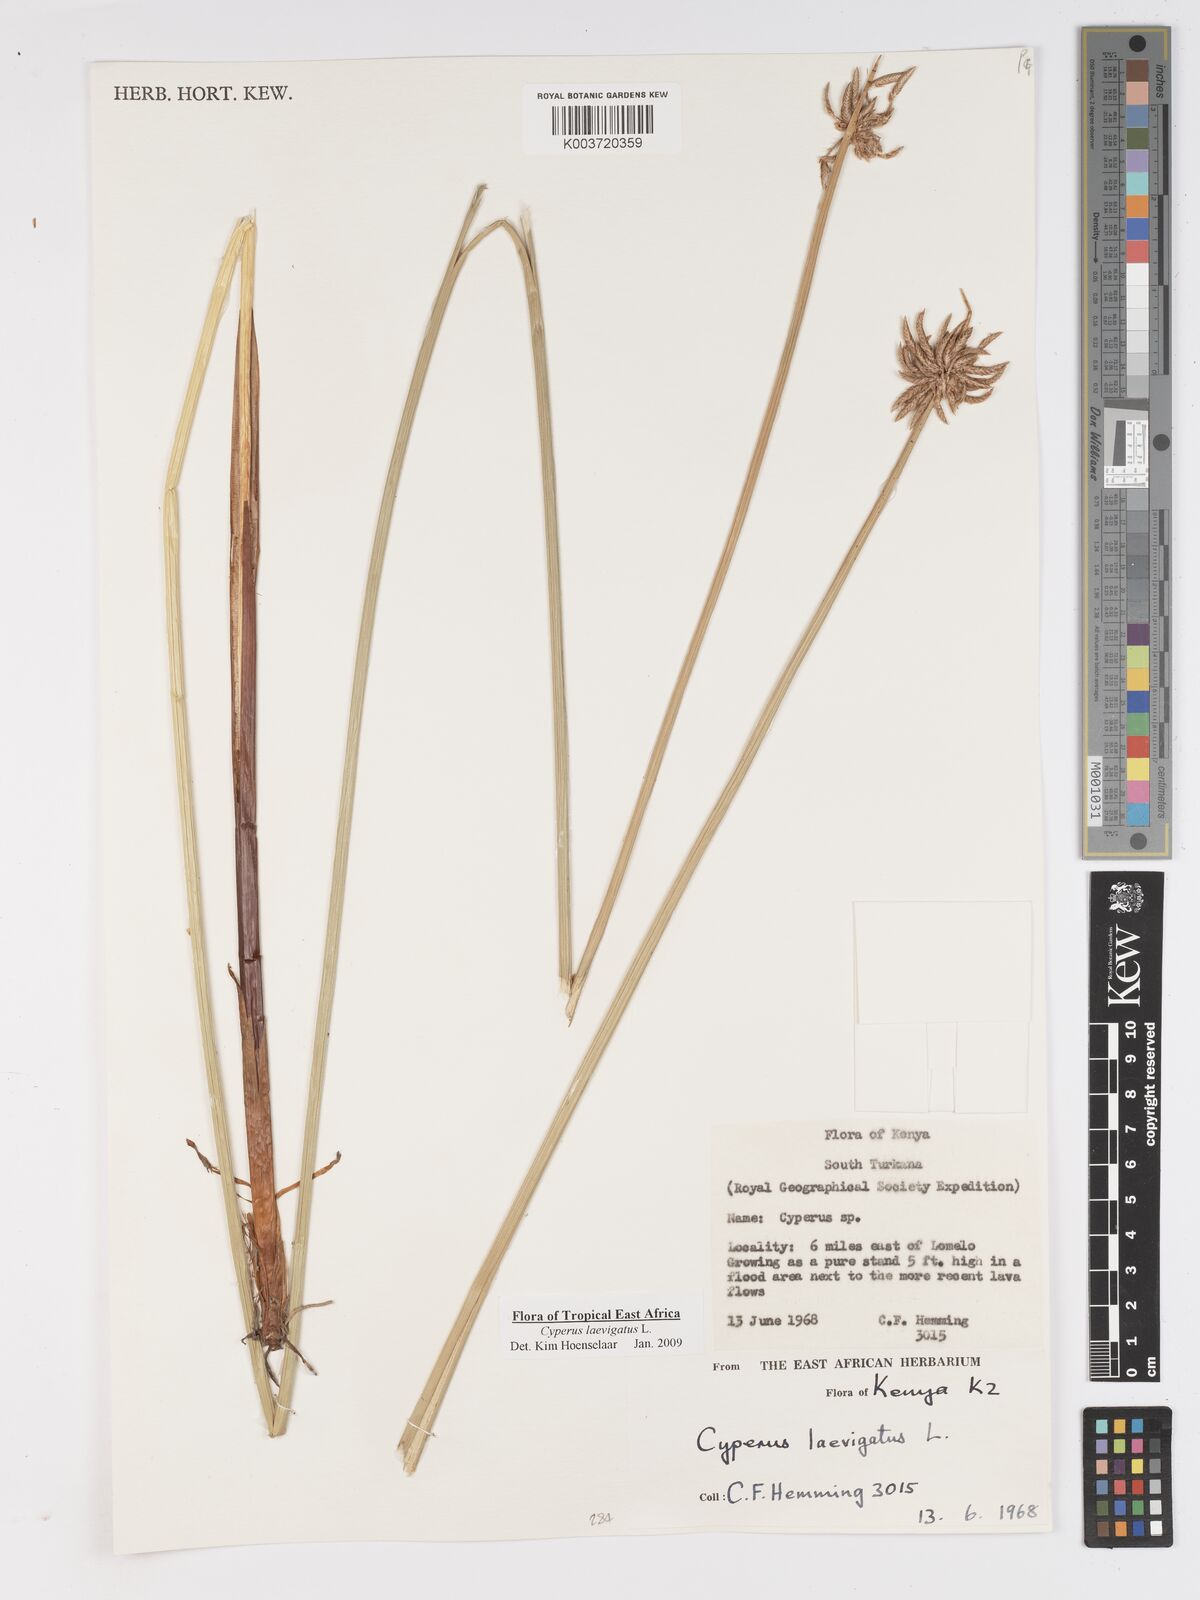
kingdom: Plantae
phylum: Tracheophyta
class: Liliopsida
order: Poales
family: Cyperaceae
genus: Cyperus
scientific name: Cyperus laevigatus
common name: Smooth flat sedge
